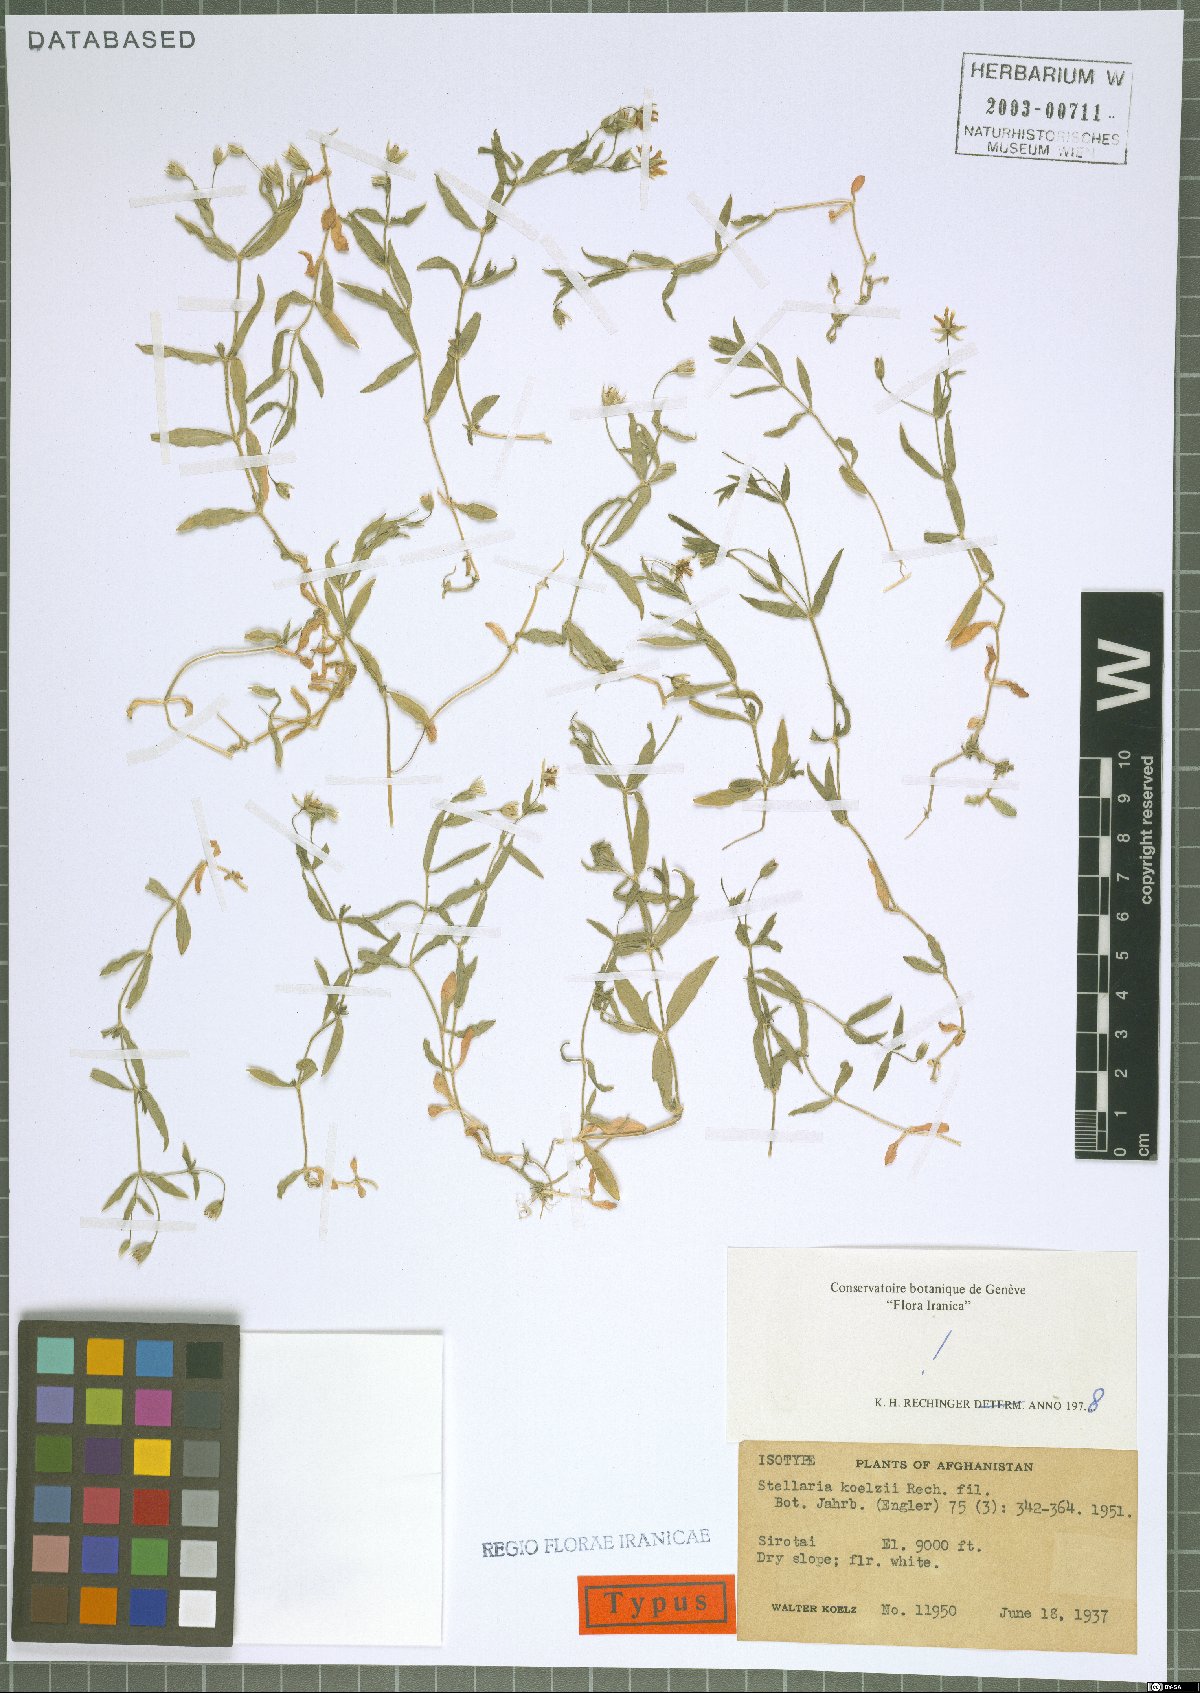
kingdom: Plantae
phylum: Tracheophyta
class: Magnoliopsida
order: Caryophyllales
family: Caryophyllaceae
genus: Stellaria
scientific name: Stellaria koelzii
